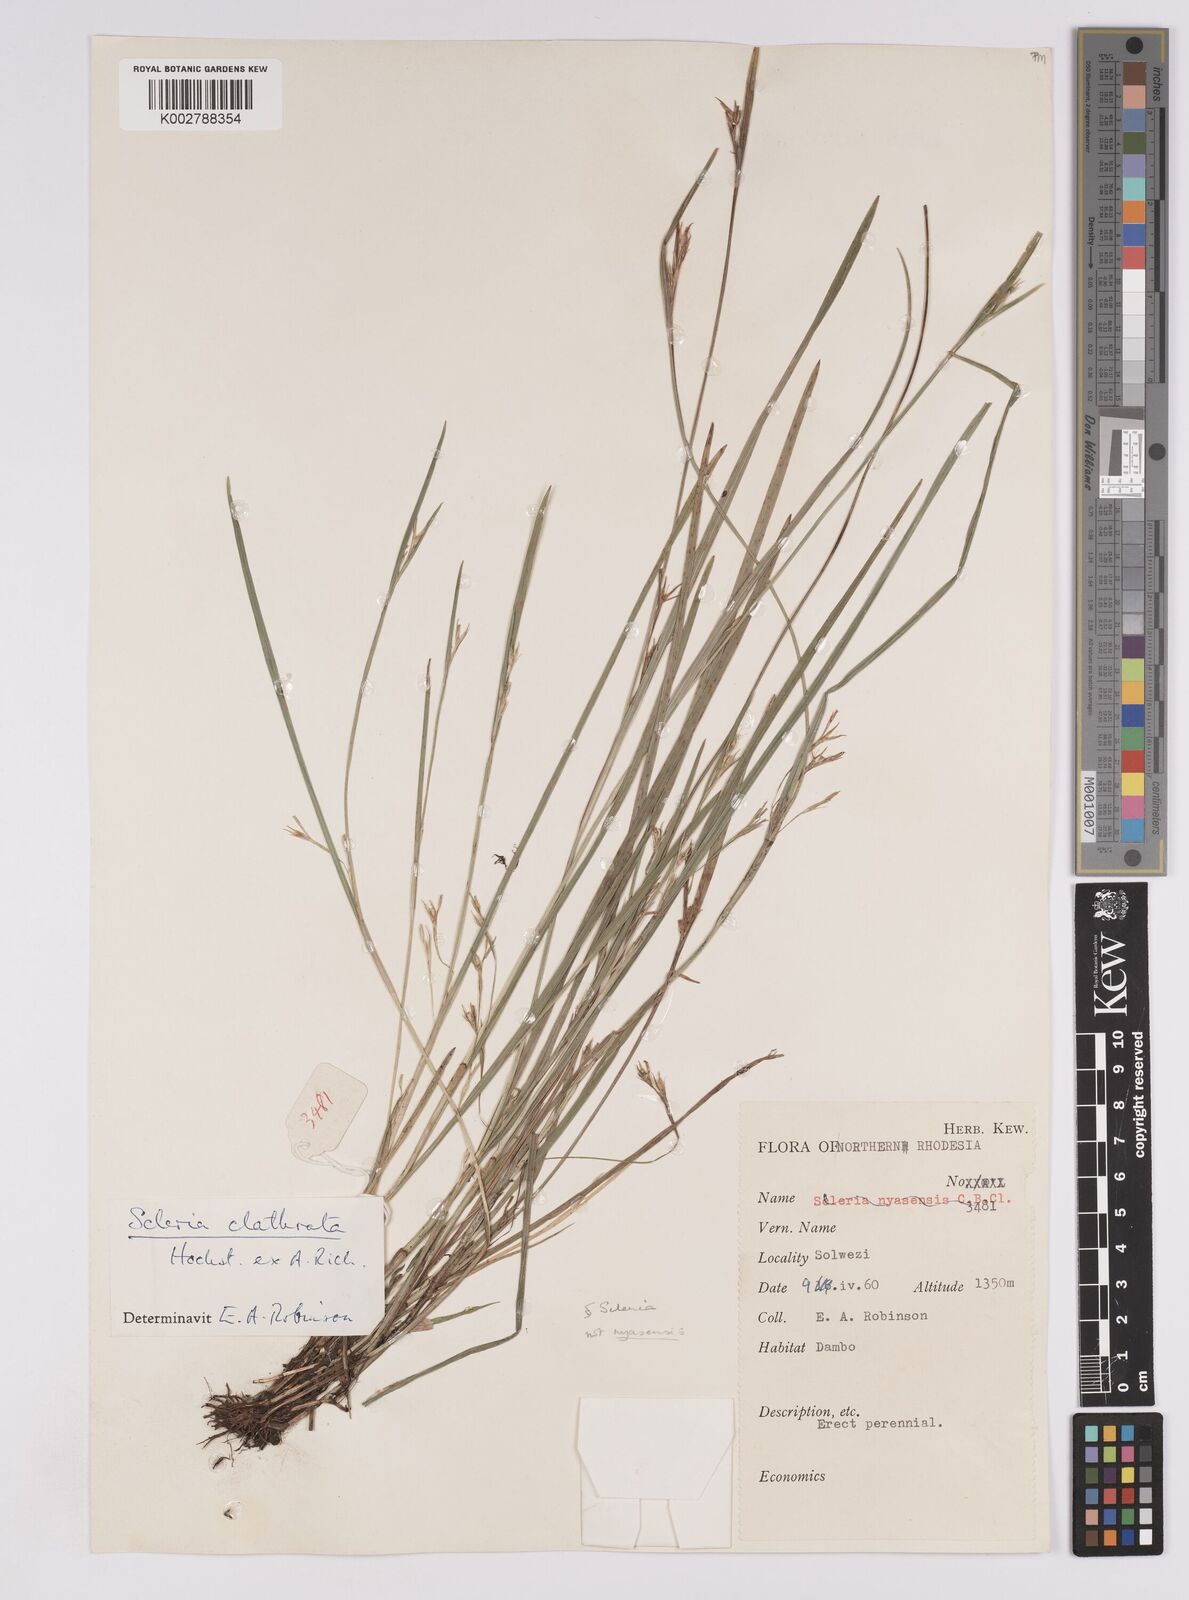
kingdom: Plantae
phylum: Tracheophyta
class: Liliopsida
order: Poales
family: Cyperaceae
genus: Scleria
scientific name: Scleria clathrata
